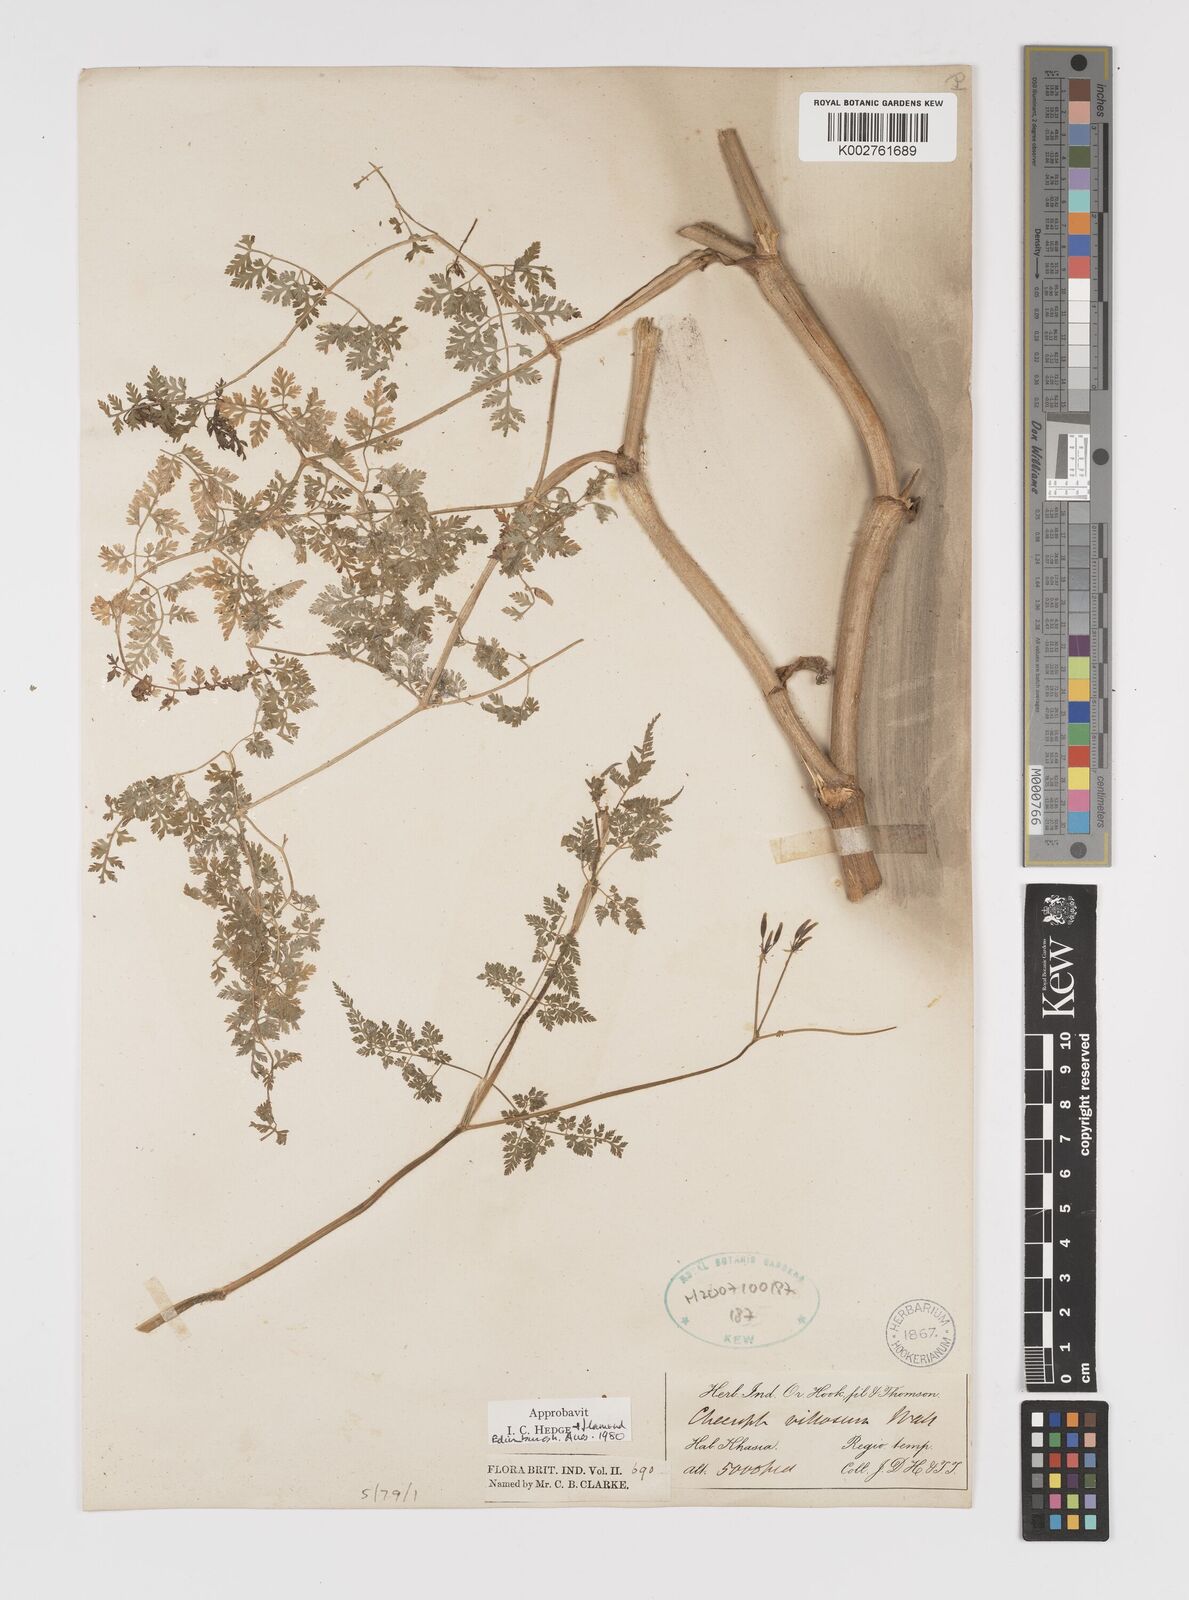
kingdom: Plantae
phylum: Tracheophyta
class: Magnoliopsida
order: Apiales
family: Apiaceae
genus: Chaerophyllum
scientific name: Chaerophyllum villosum
